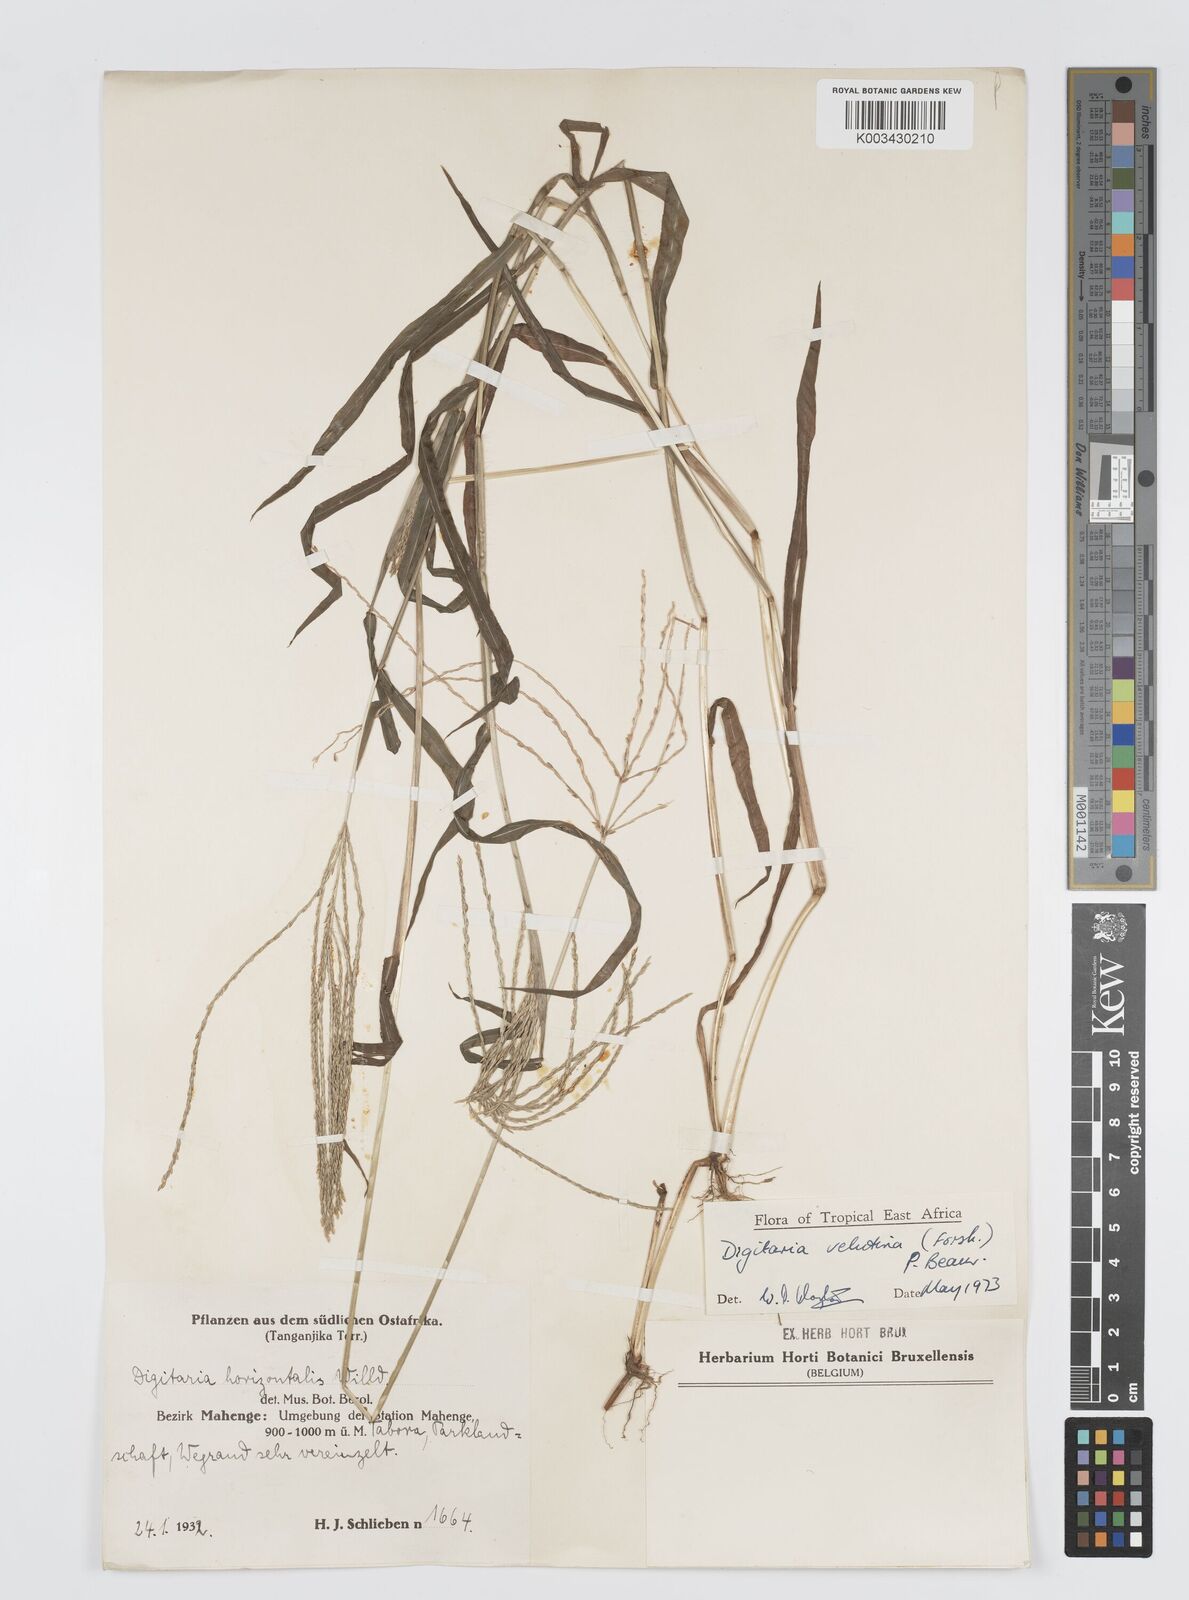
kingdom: Plantae
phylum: Tracheophyta
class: Liliopsida
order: Poales
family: Poaceae
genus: Digitaria
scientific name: Digitaria velutina
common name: Long-plume finger grass
